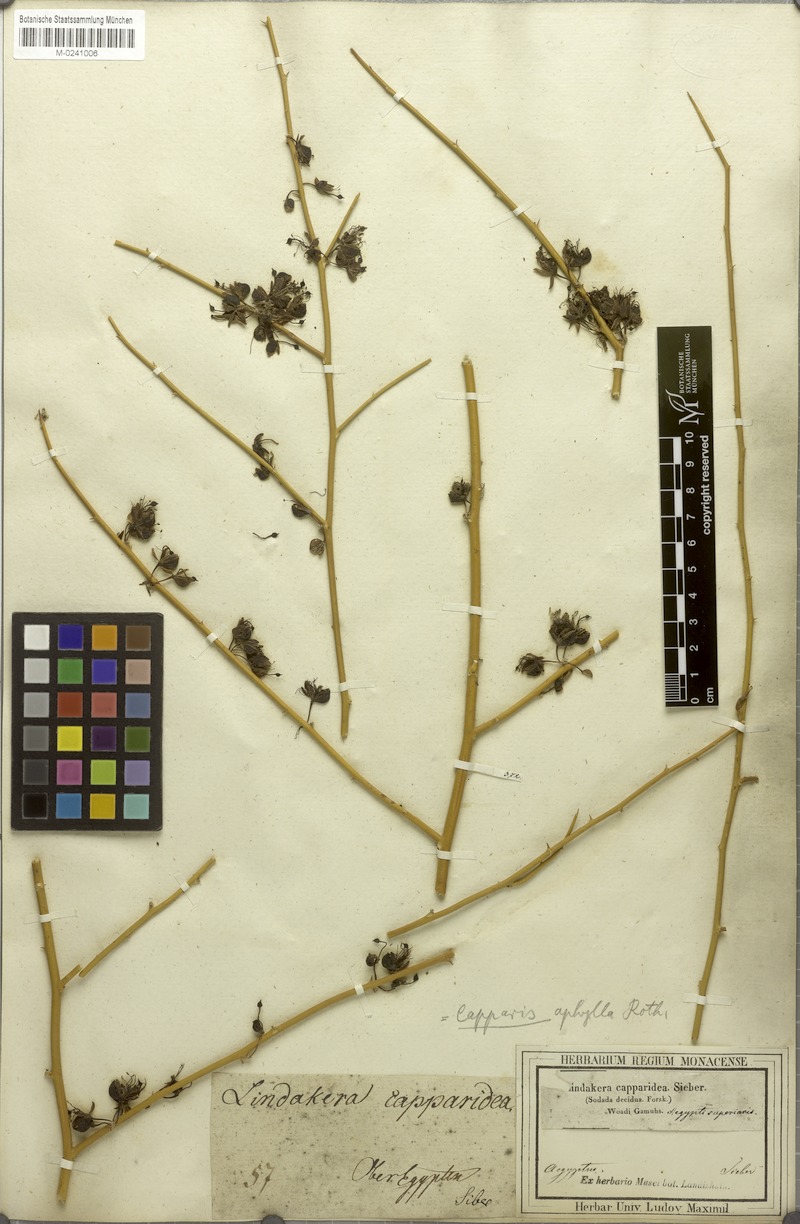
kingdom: Plantae
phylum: Tracheophyta
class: Magnoliopsida
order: Brassicales
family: Capparaceae
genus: Capparis
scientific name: Capparis decidua
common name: Sodada
